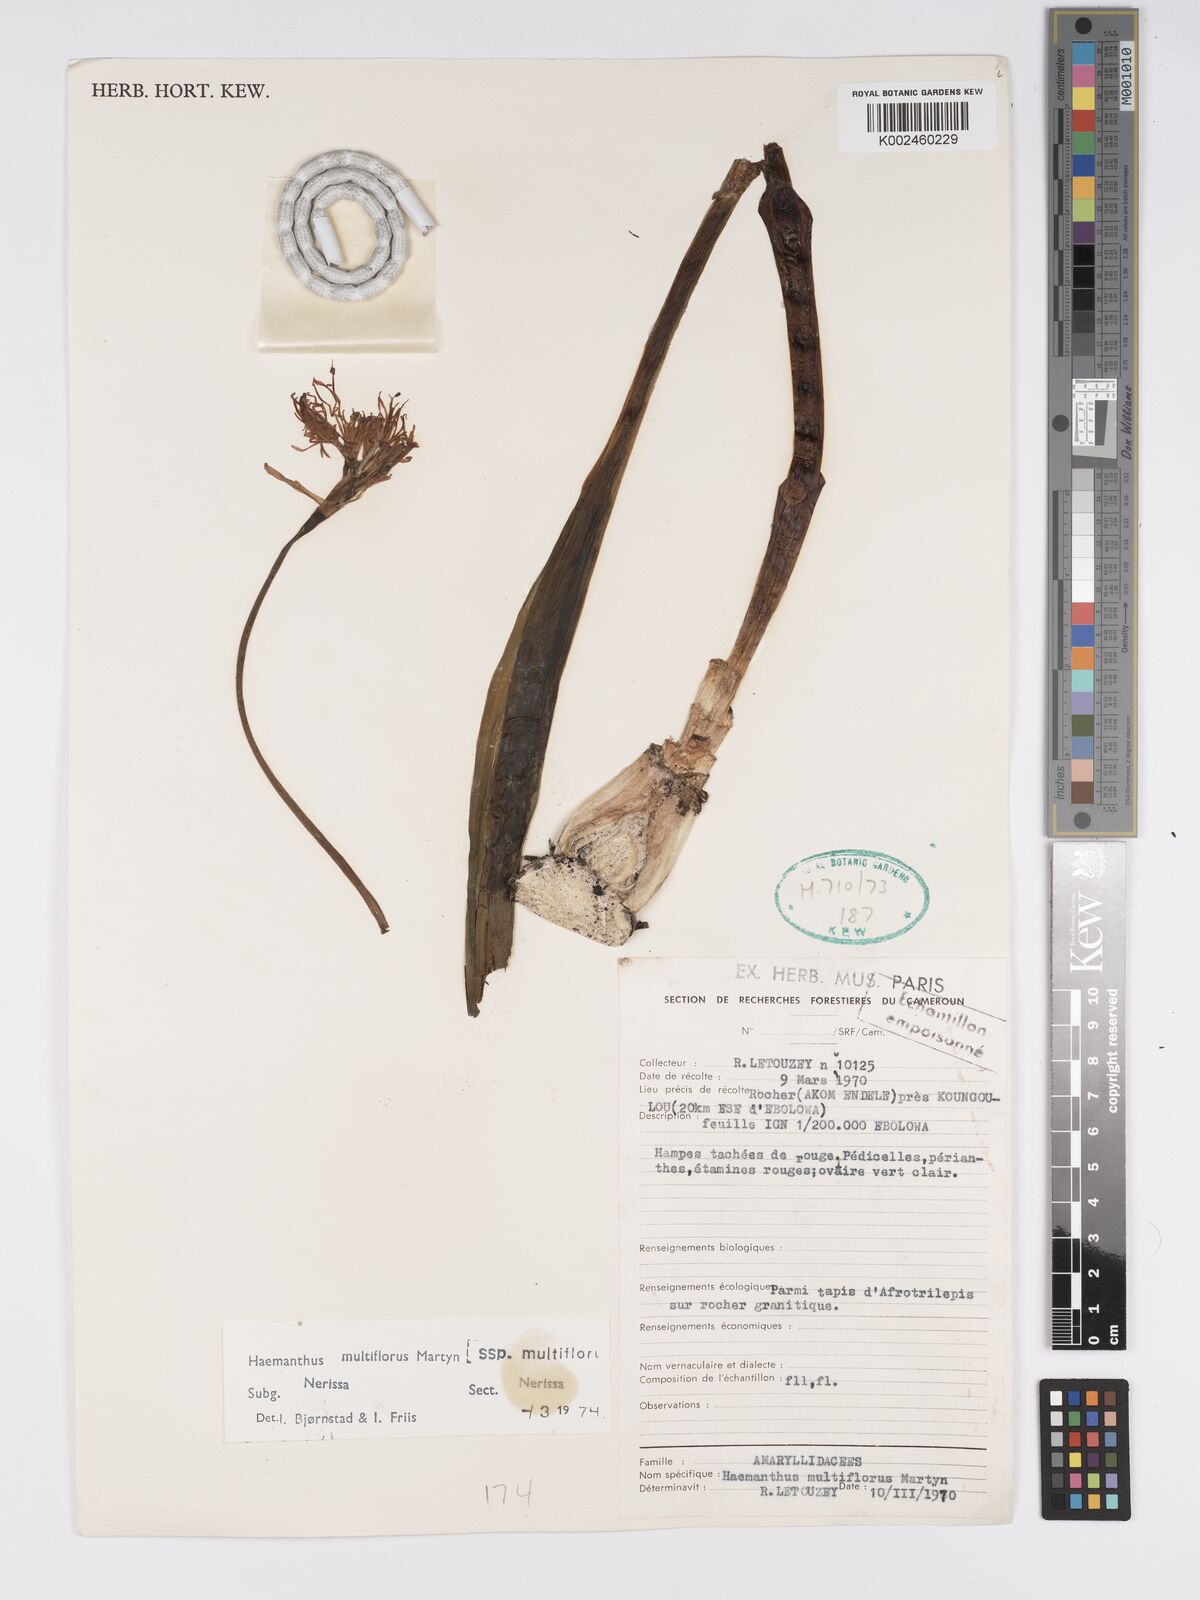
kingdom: Plantae
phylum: Tracheophyta
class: Liliopsida
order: Asparagales
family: Amaryllidaceae
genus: Scadoxus
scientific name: Scadoxus multiflorus
